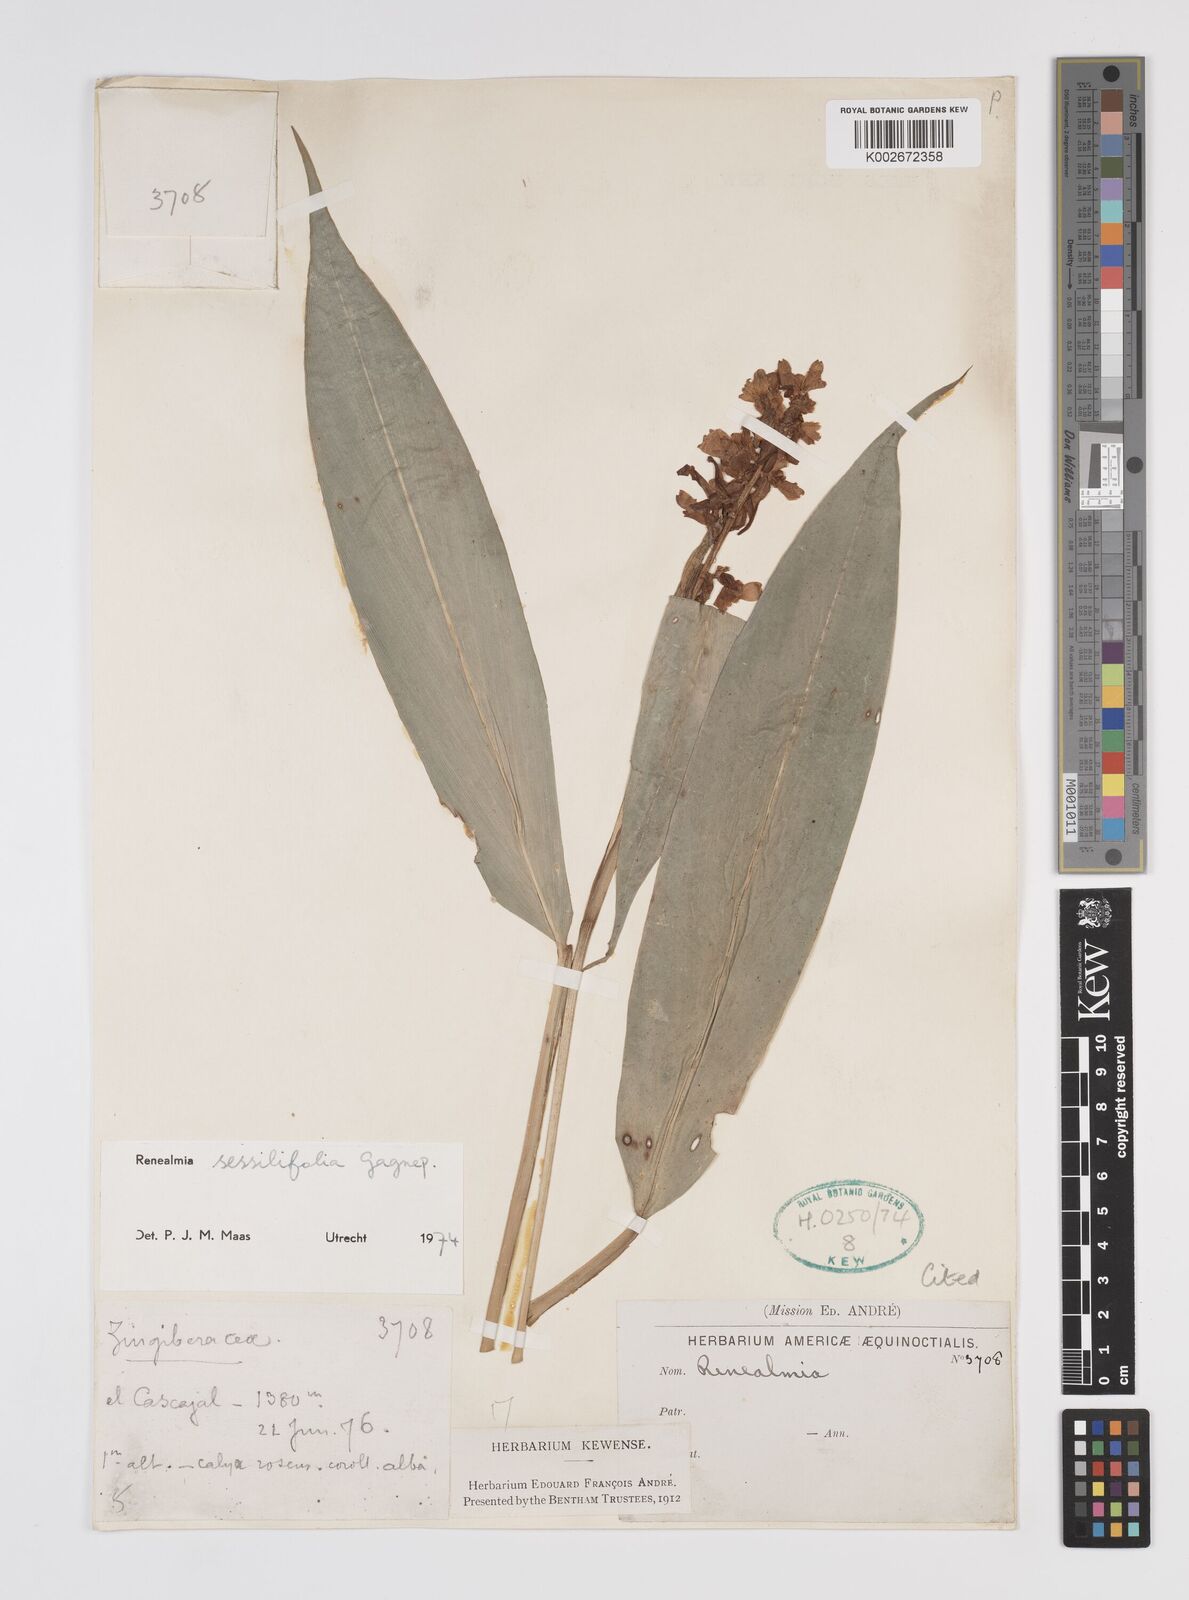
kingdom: Plantae
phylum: Tracheophyta
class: Liliopsida
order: Zingiberales
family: Zingiberaceae
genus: Renealmia
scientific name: Renealmia sessilifolia
